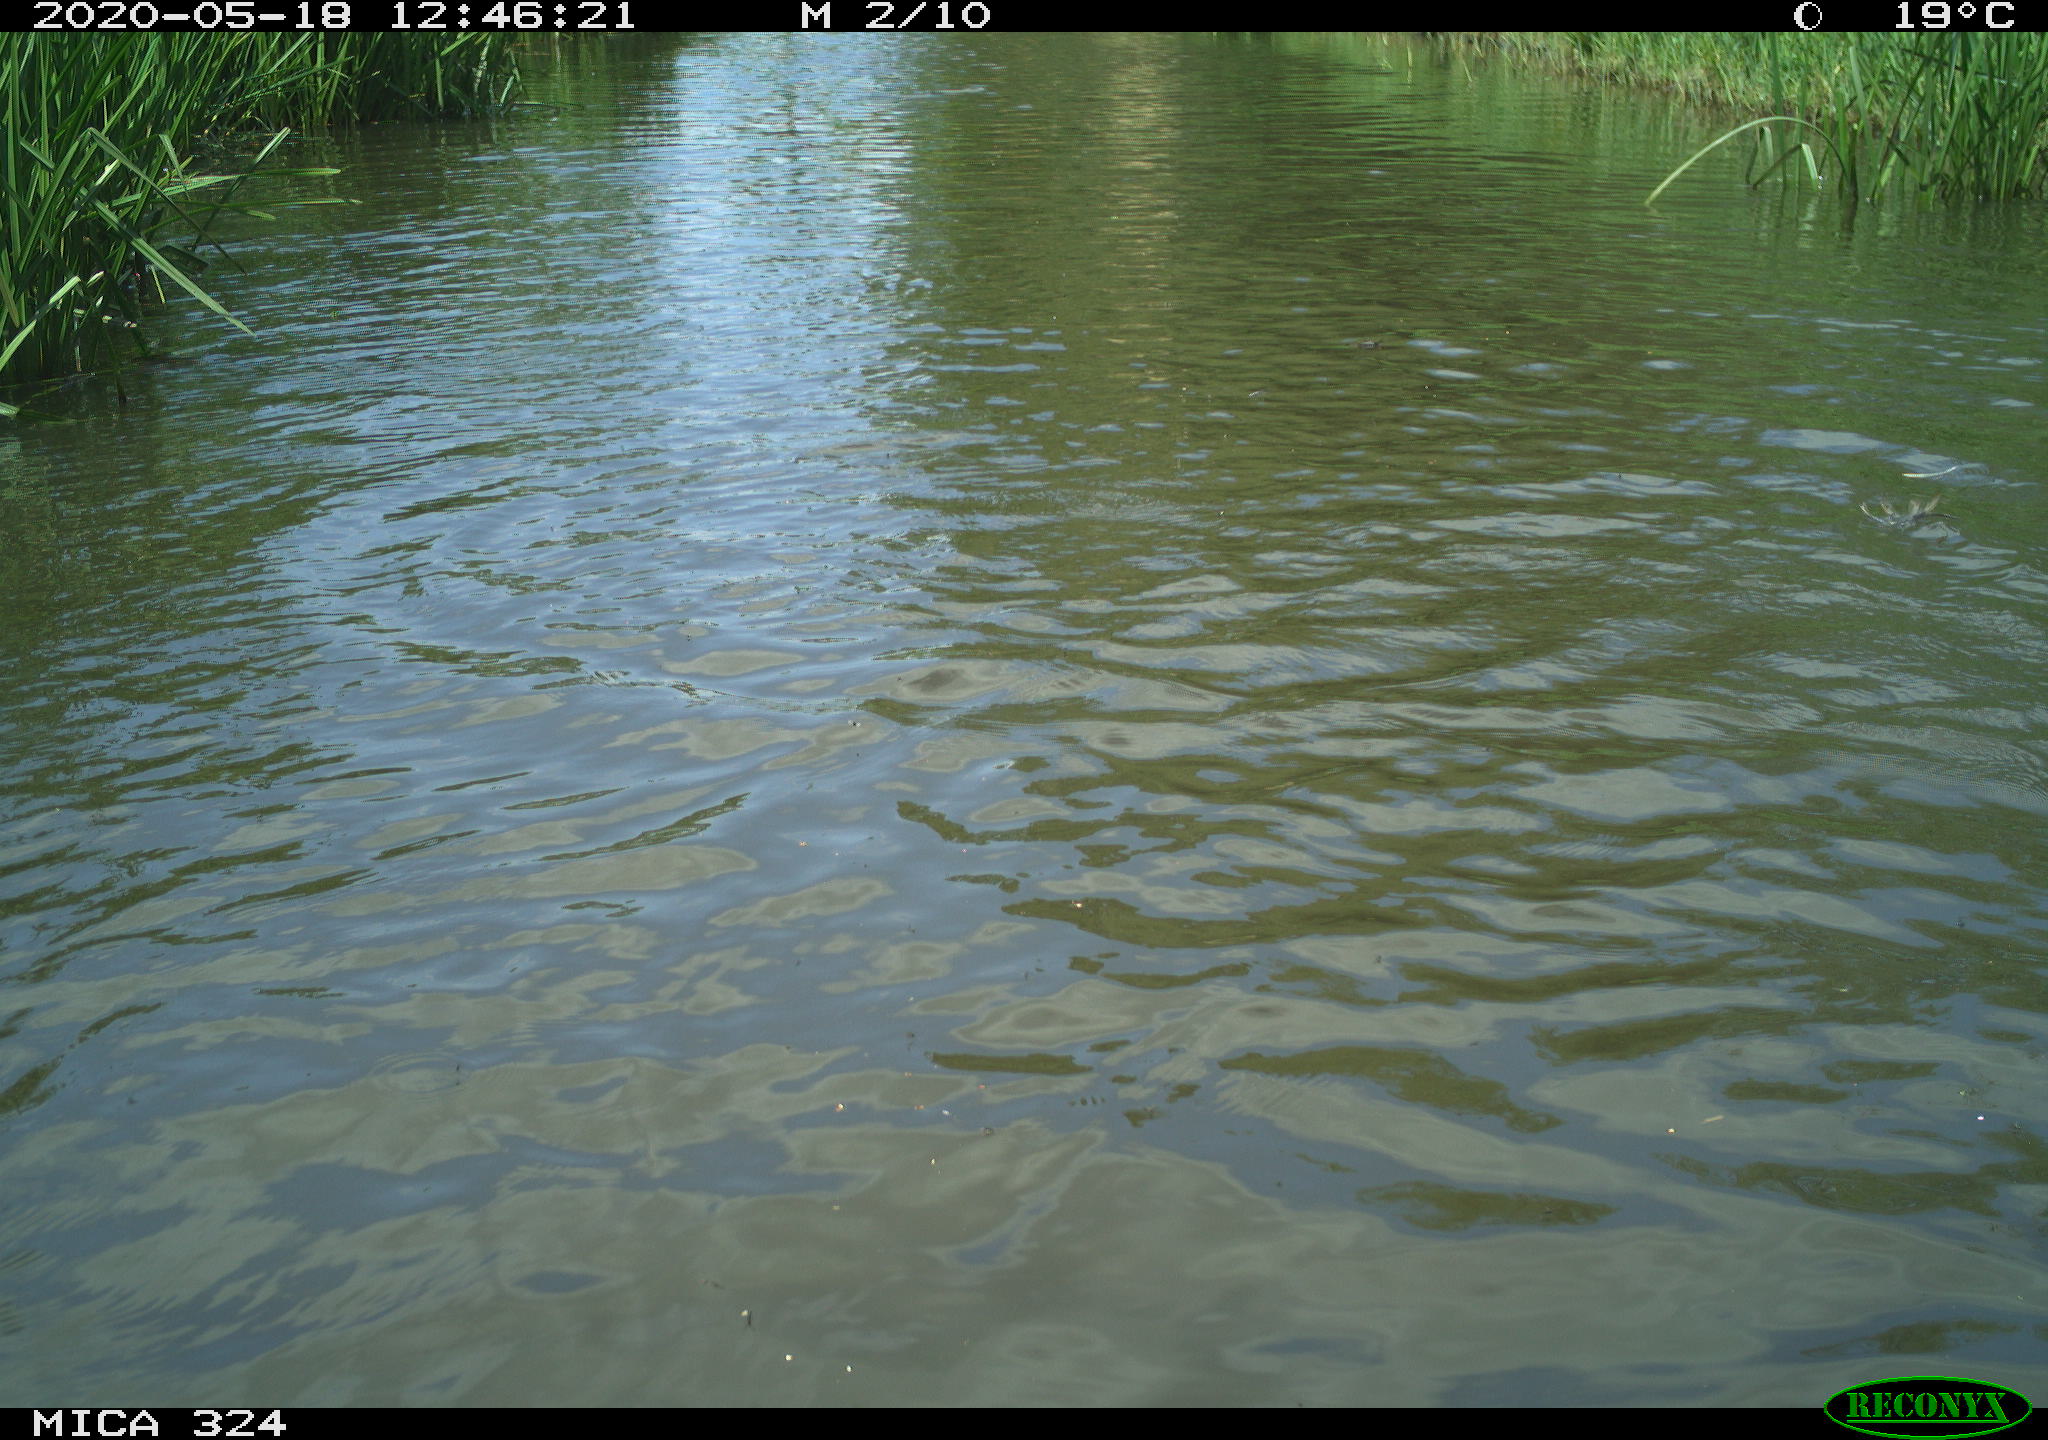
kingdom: Animalia
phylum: Chordata
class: Aves
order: Gruiformes
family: Rallidae
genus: Fulica
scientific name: Fulica atra
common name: Eurasian coot
